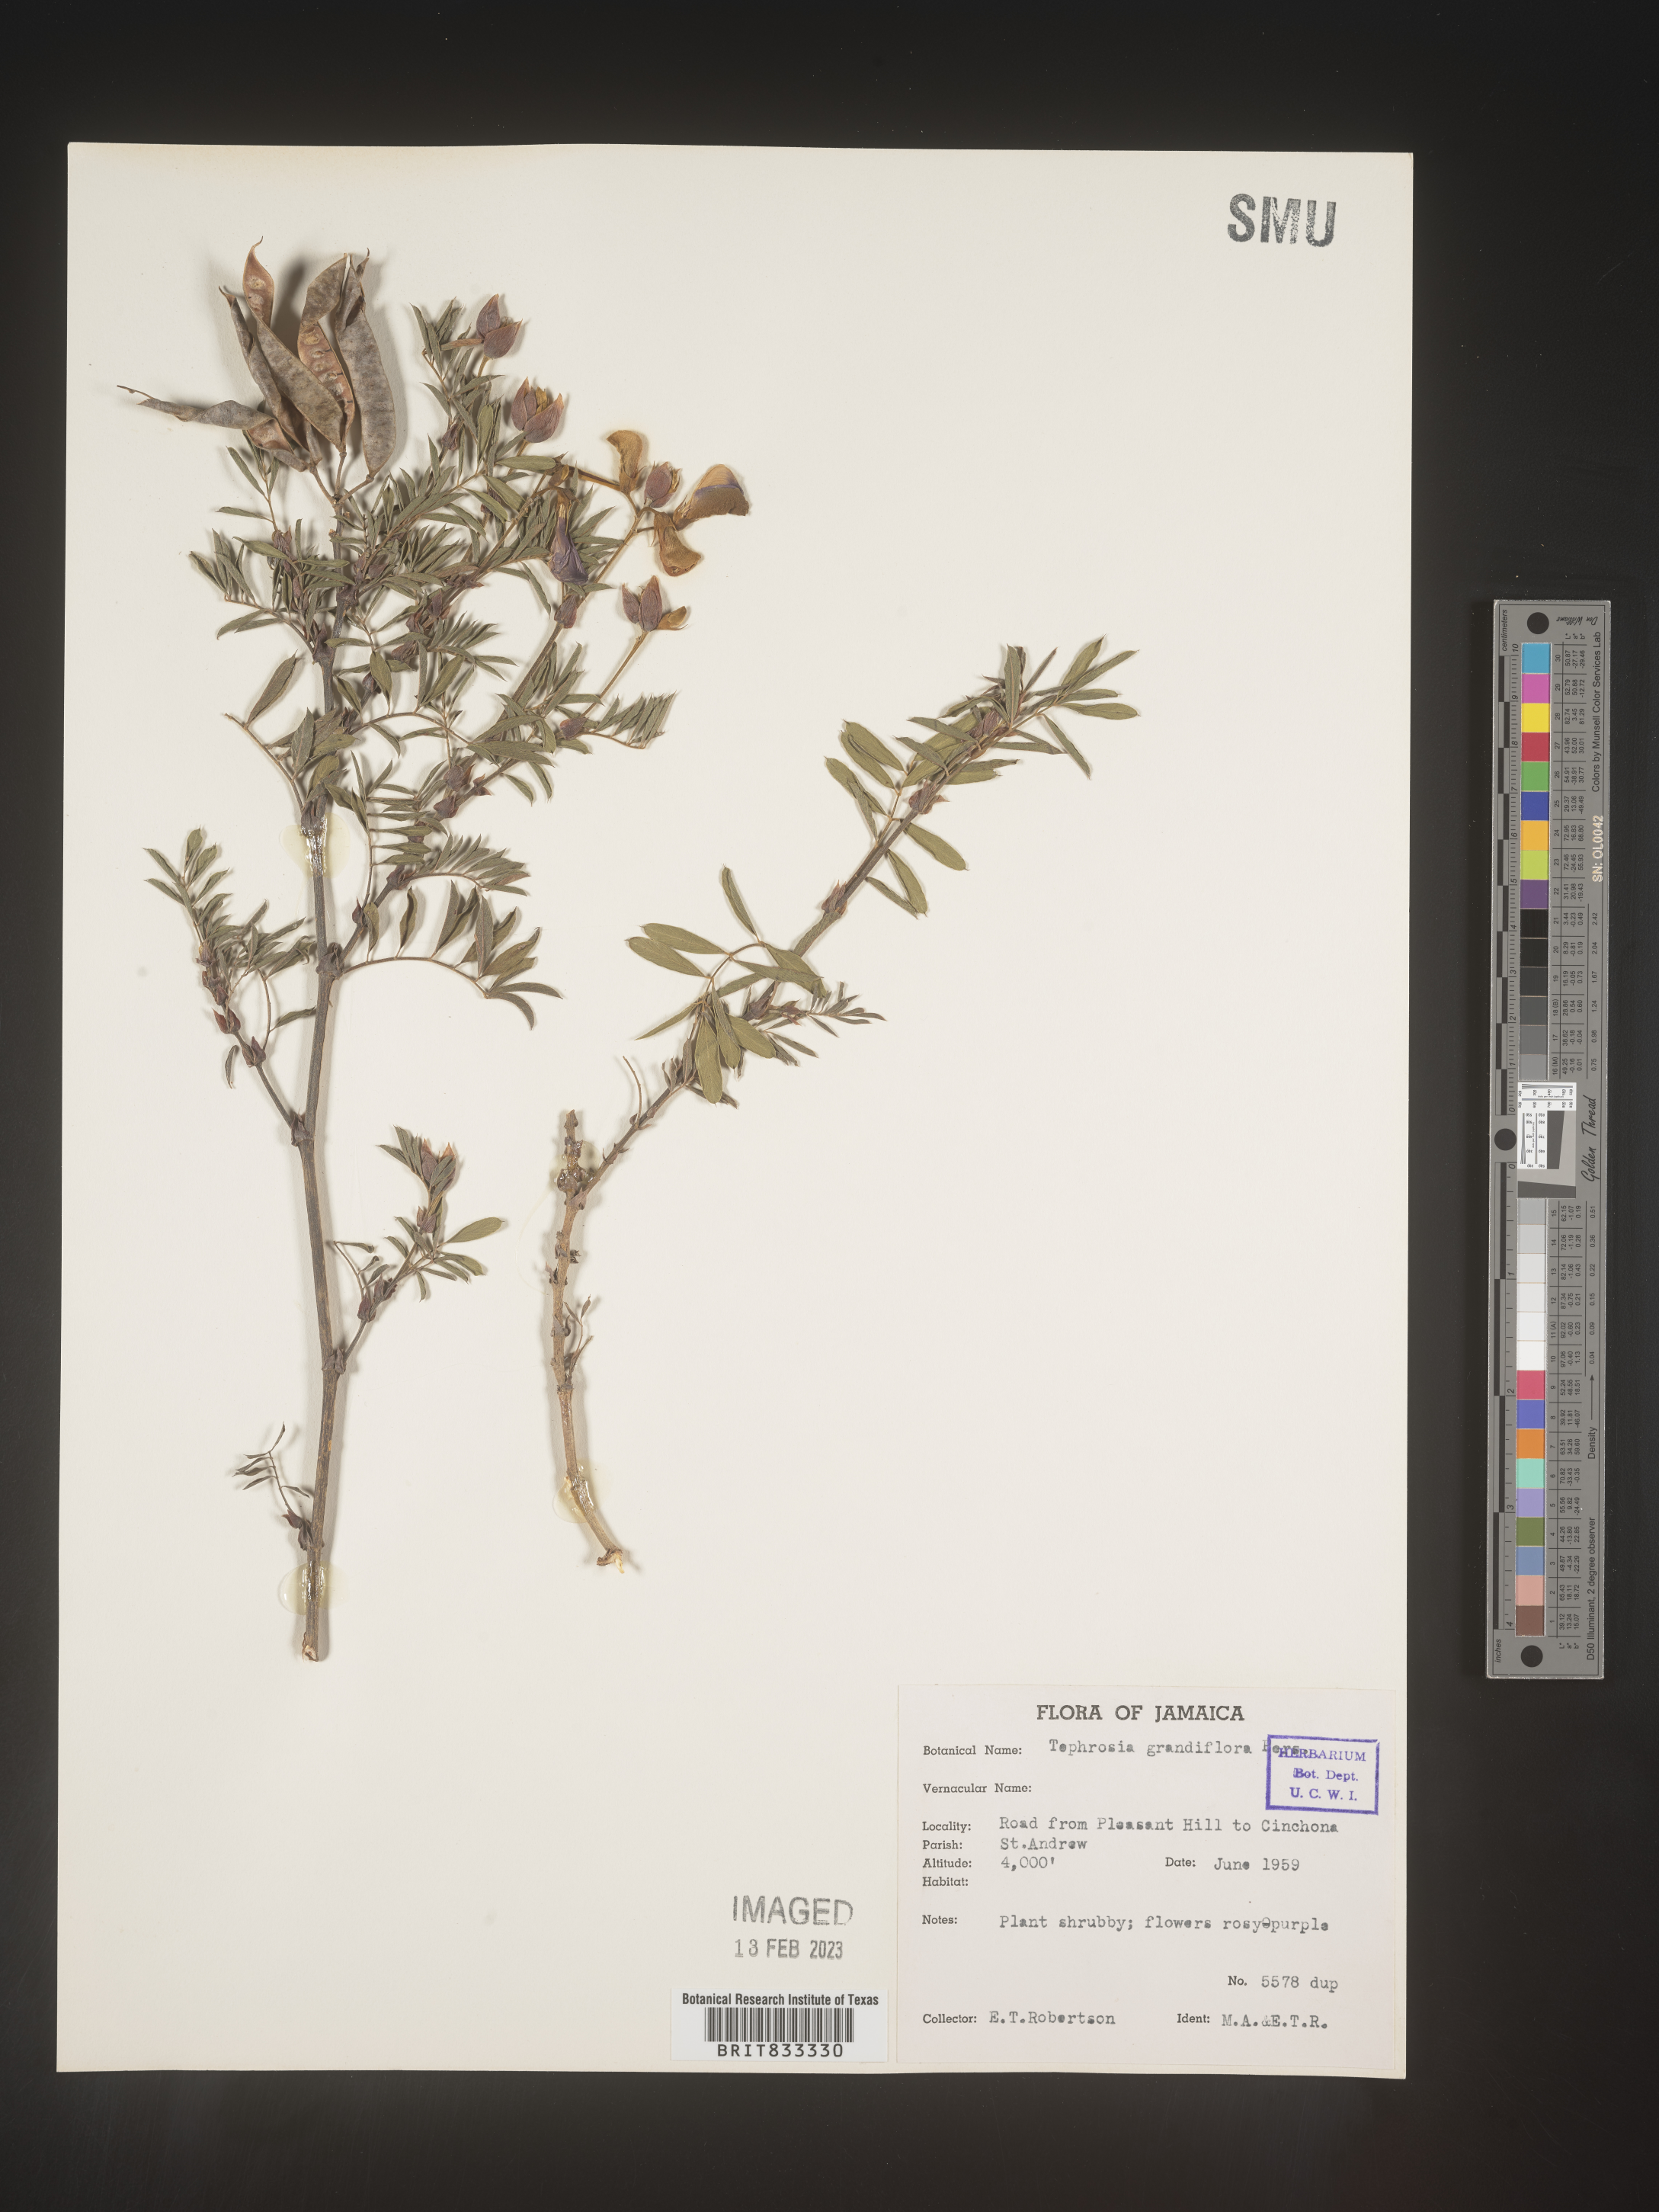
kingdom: Plantae
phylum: Tracheophyta
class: Magnoliopsida
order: Fabales
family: Fabaceae
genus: Tephrosia
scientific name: Tephrosia
